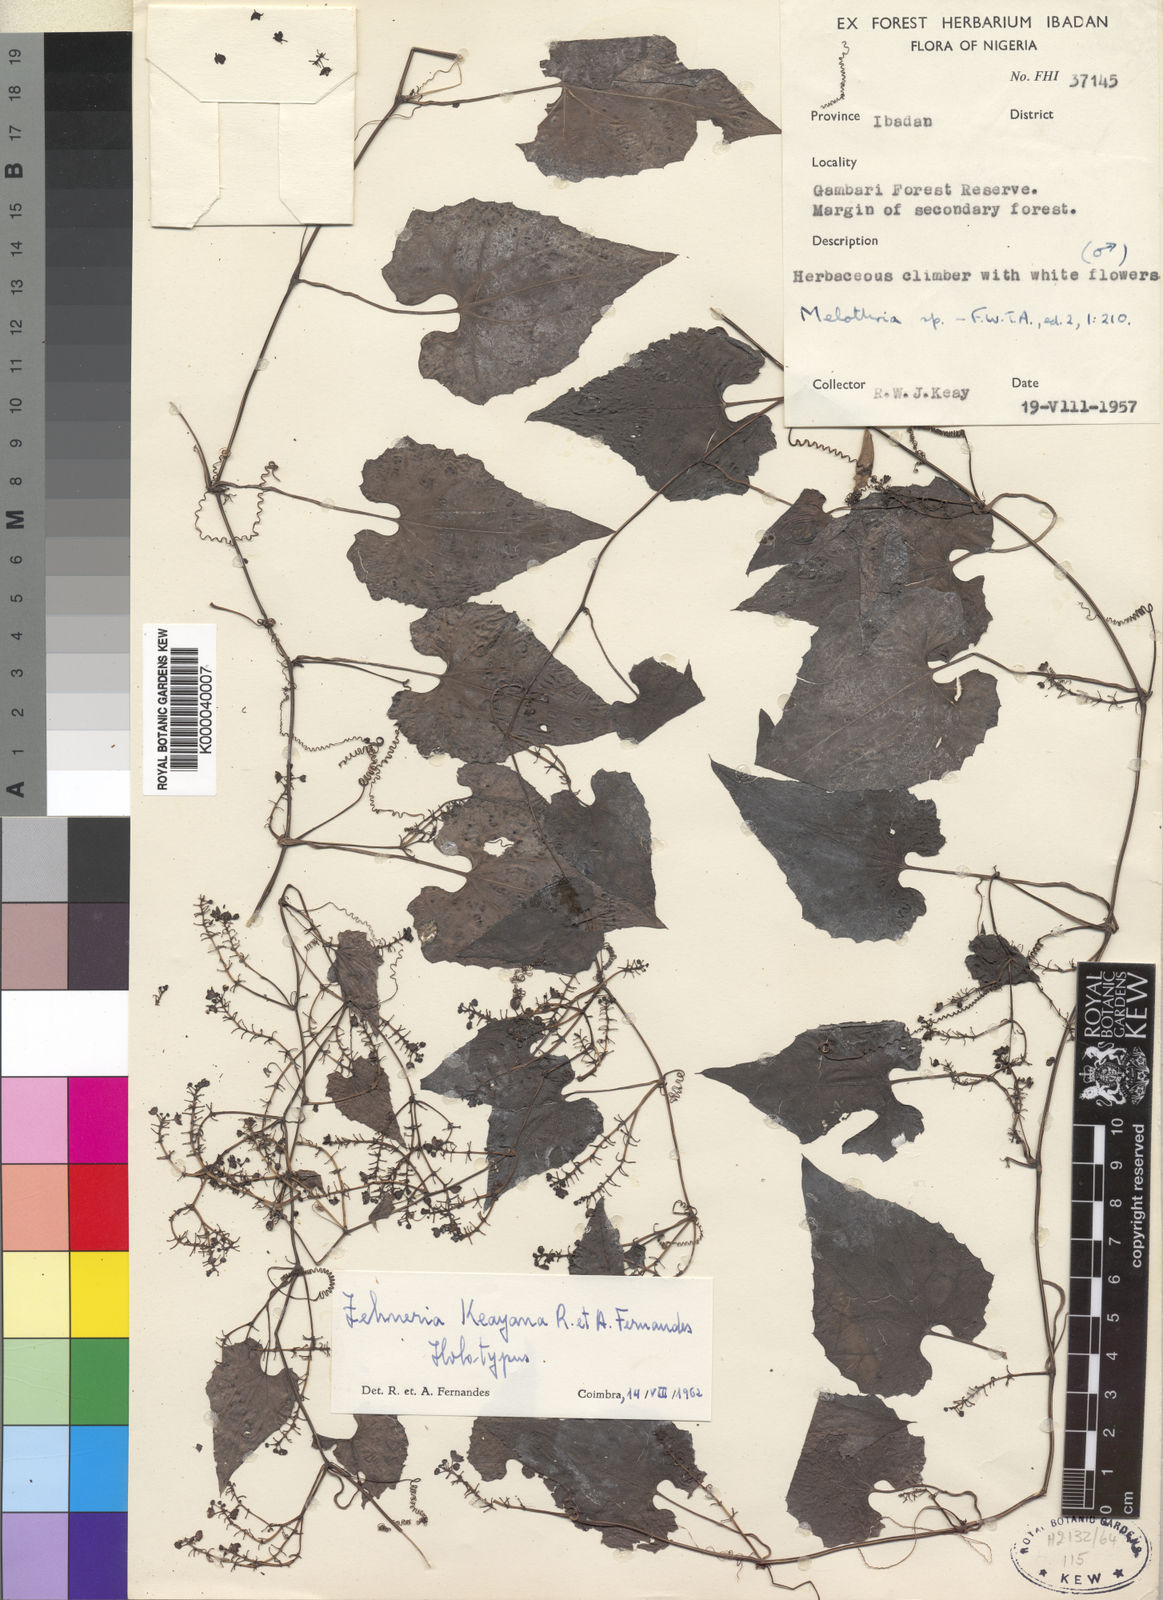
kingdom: Plantae
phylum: Tracheophyta
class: Magnoliopsida
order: Cucurbitales
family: Cucurbitaceae
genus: Zehneria
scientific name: Zehneria keayana
